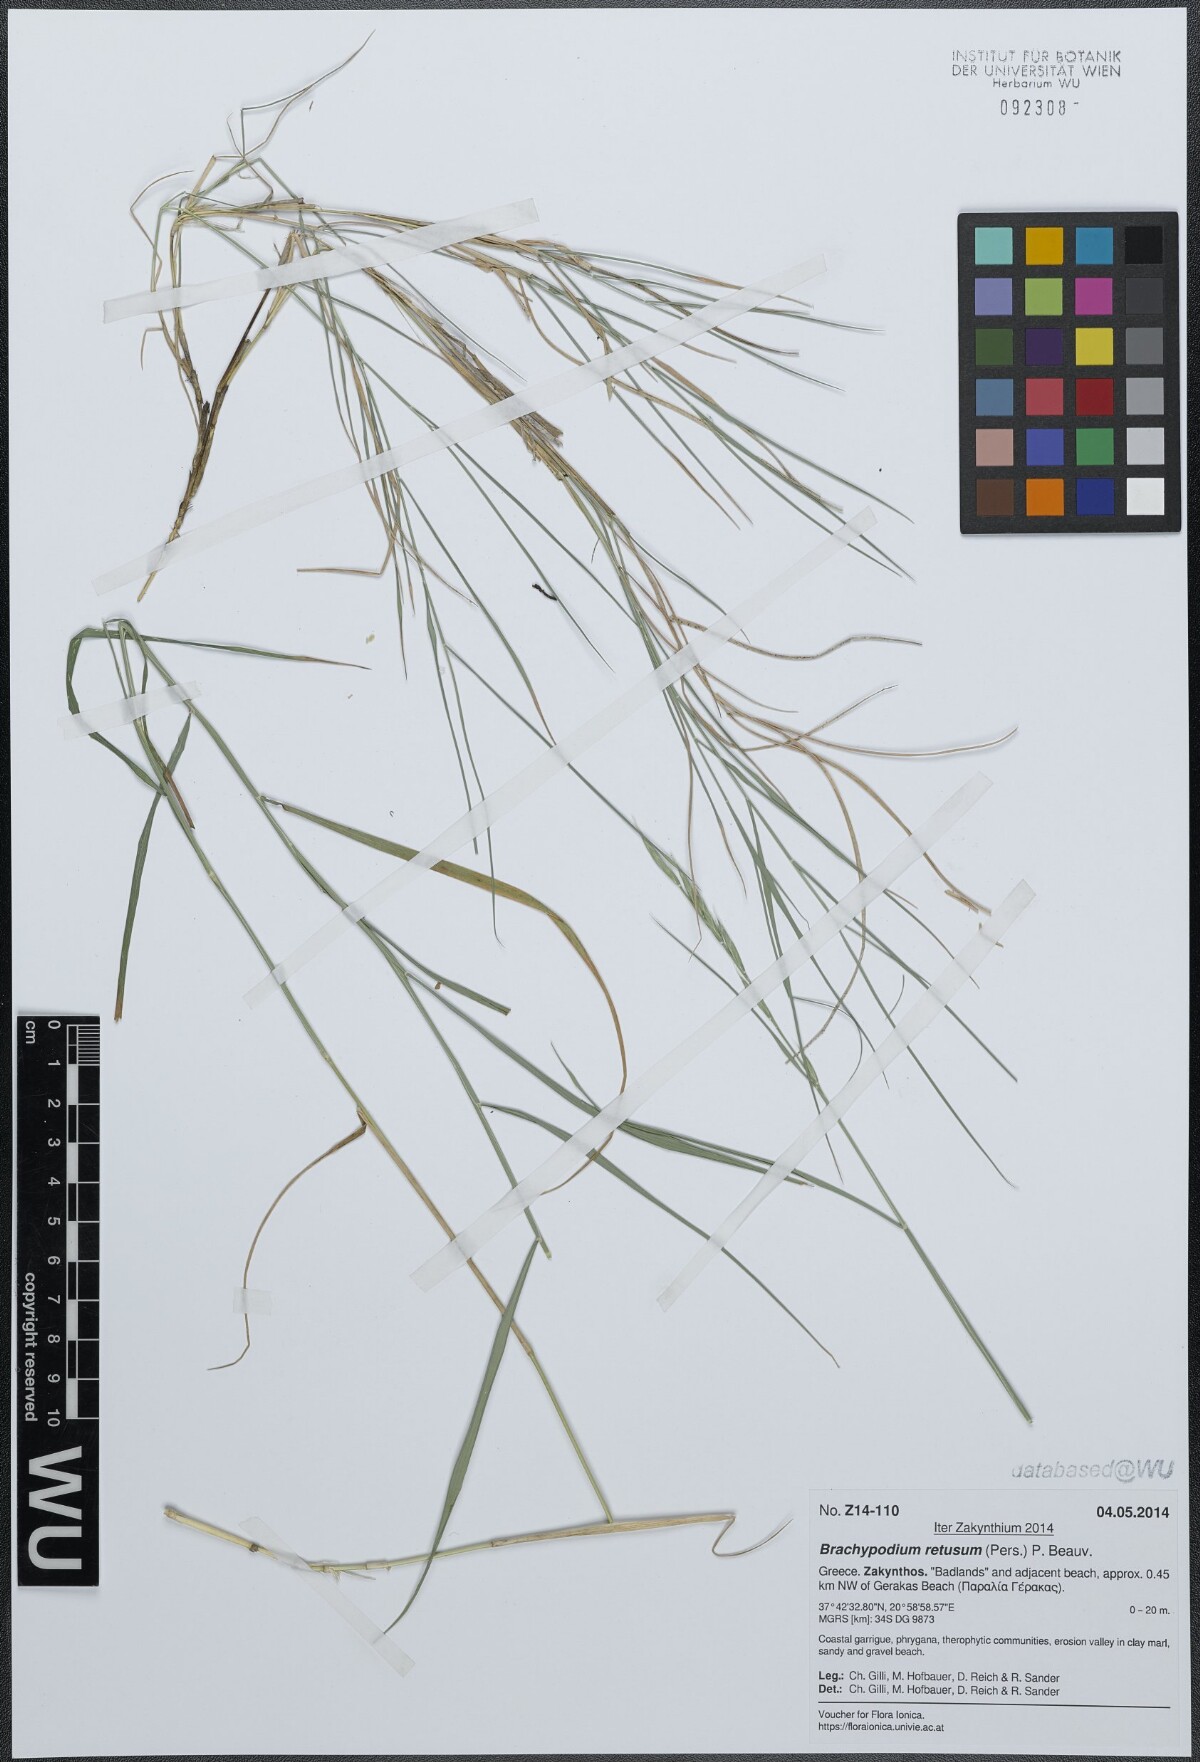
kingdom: Plantae
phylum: Tracheophyta
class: Liliopsida
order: Poales
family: Poaceae
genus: Brachypodium
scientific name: Brachypodium retusum
